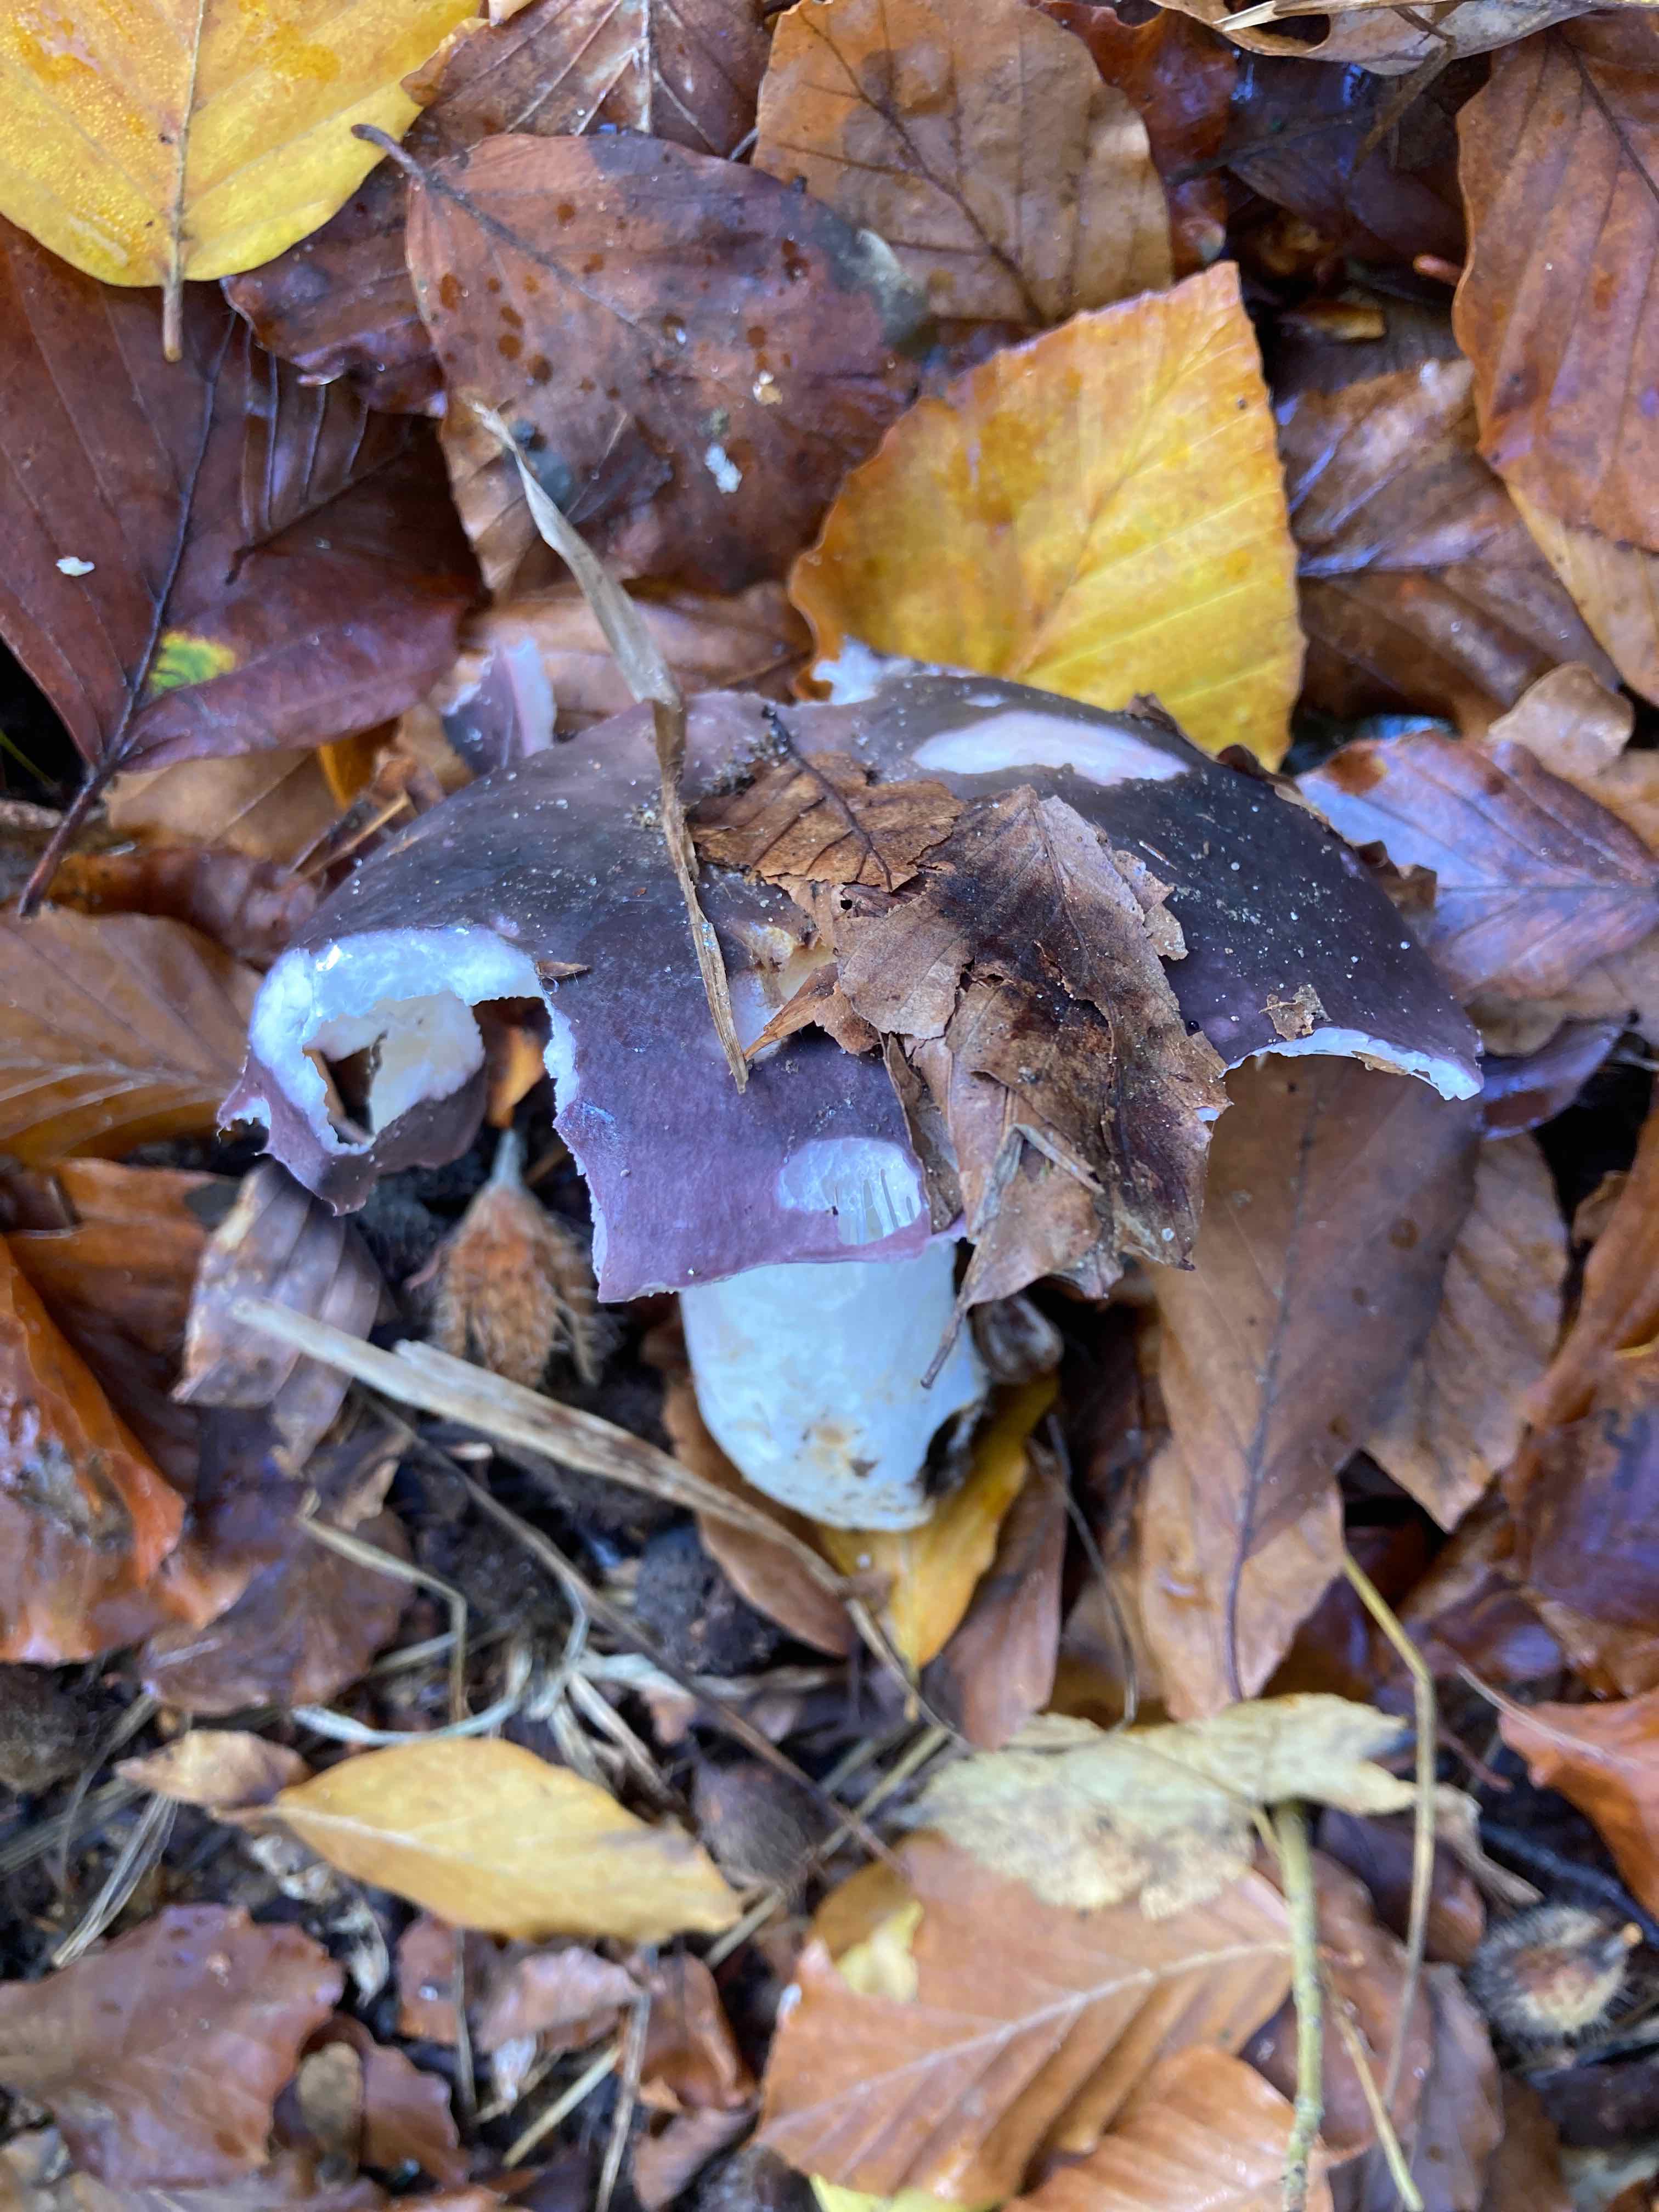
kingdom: Fungi
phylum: Basidiomycota
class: Agaricomycetes
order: Russulales
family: Russulaceae
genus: Russula
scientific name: Russula cyanoxantha
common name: broget skørhat
